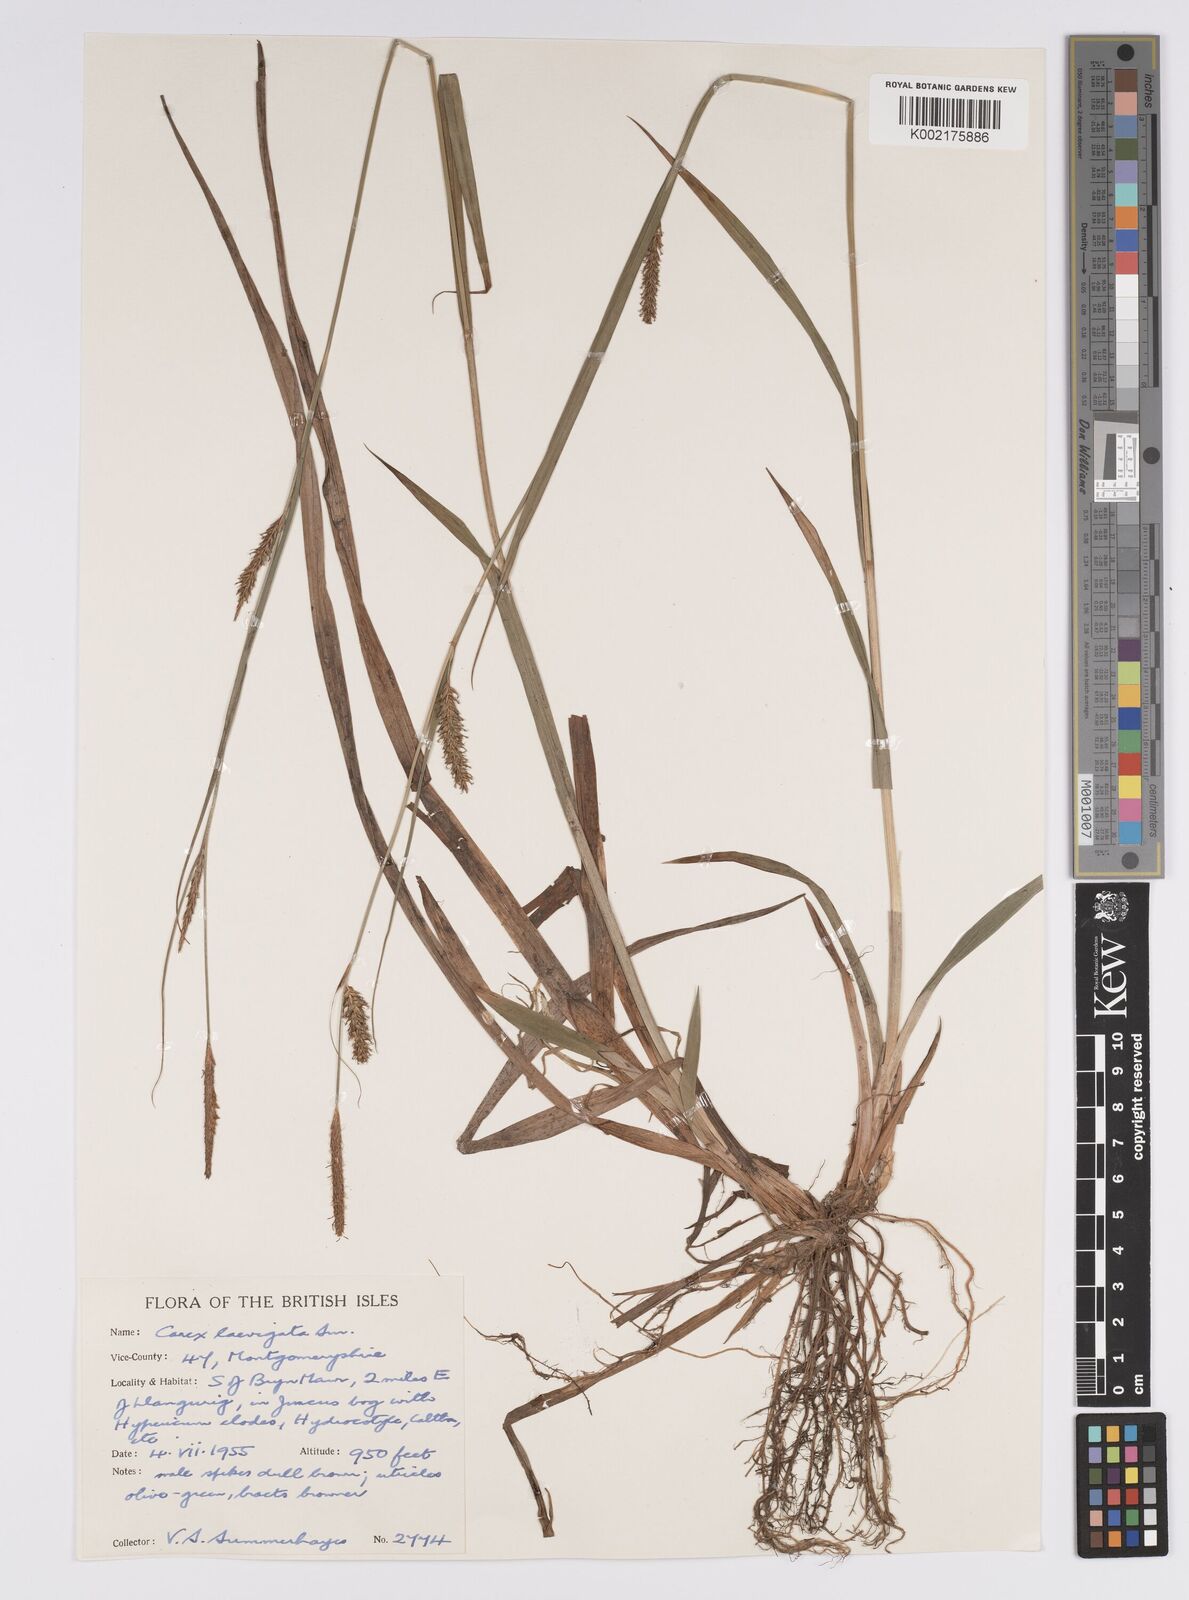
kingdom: Plantae
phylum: Tracheophyta
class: Liliopsida
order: Poales
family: Cyperaceae
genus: Carex
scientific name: Carex laevigata
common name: Smooth-stalked sedge
